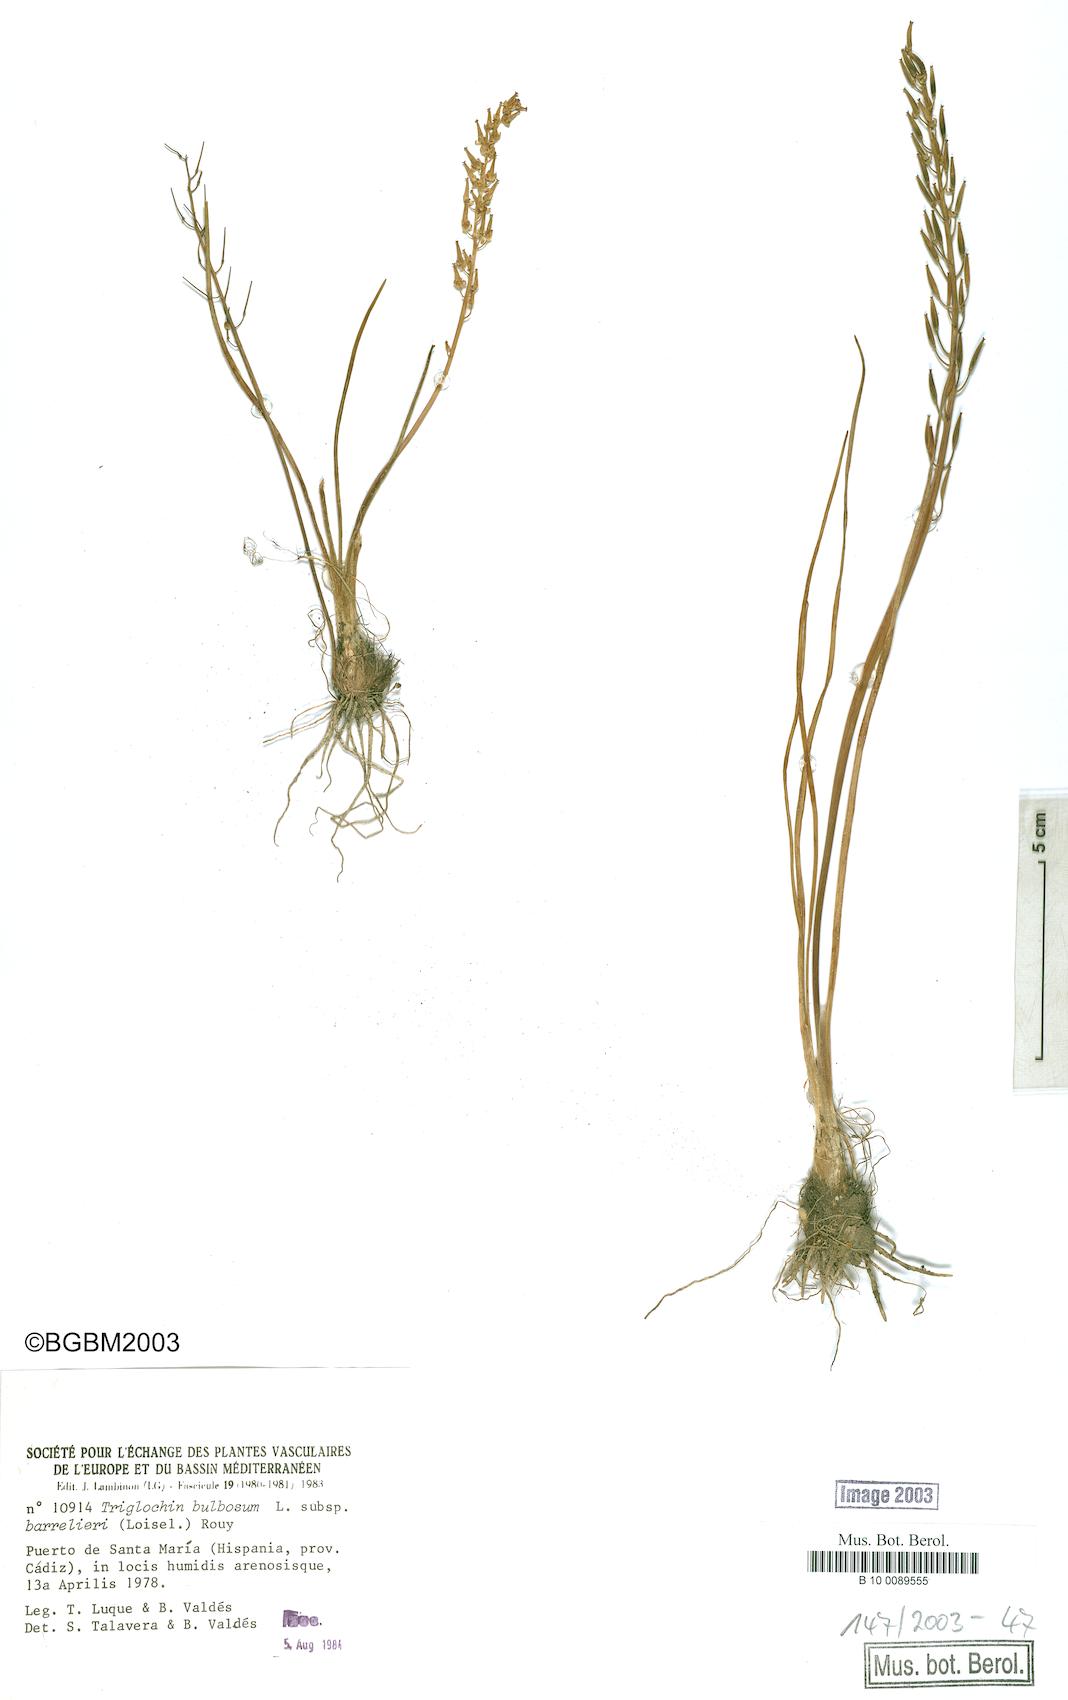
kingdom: Plantae
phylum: Tracheophyta
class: Liliopsida
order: Alismatales
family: Juncaginaceae
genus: Triglochin
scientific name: Triglochin barrelieri
